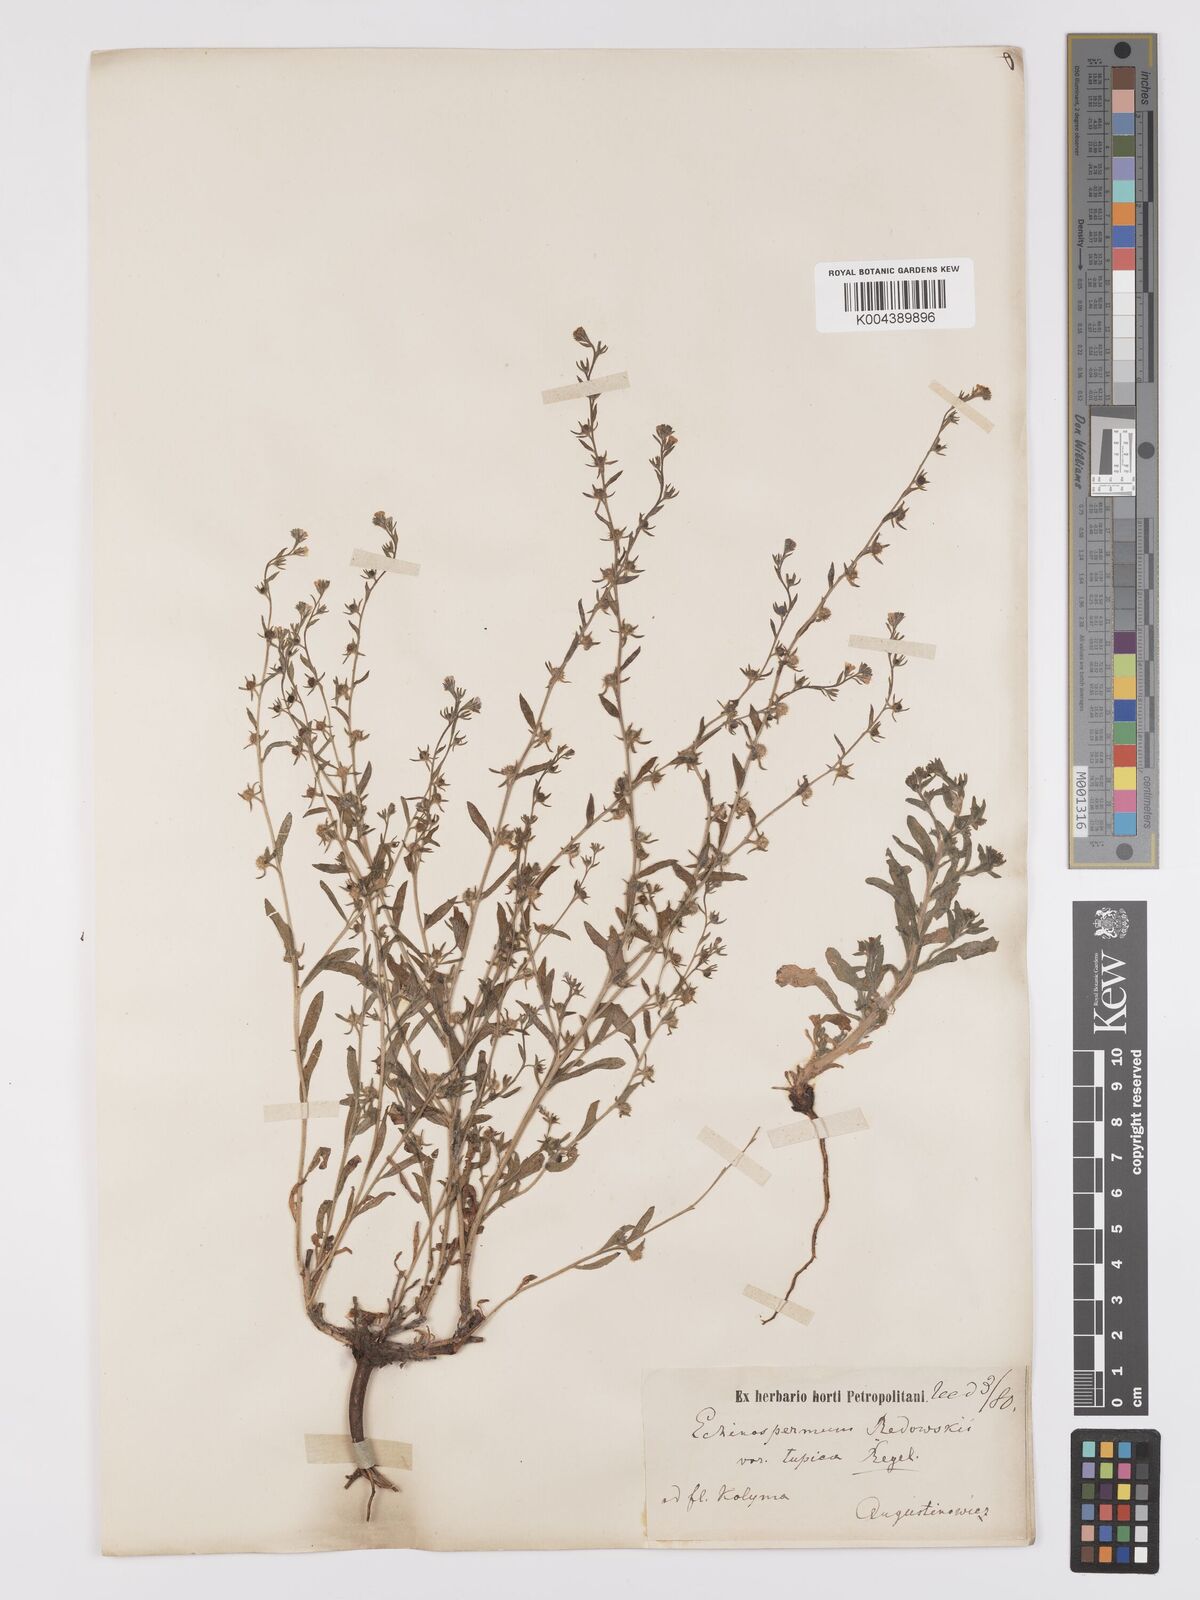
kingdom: Plantae
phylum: Tracheophyta
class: Magnoliopsida
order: Boraginales
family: Boraginaceae
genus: Lappula
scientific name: Lappula redowskii
